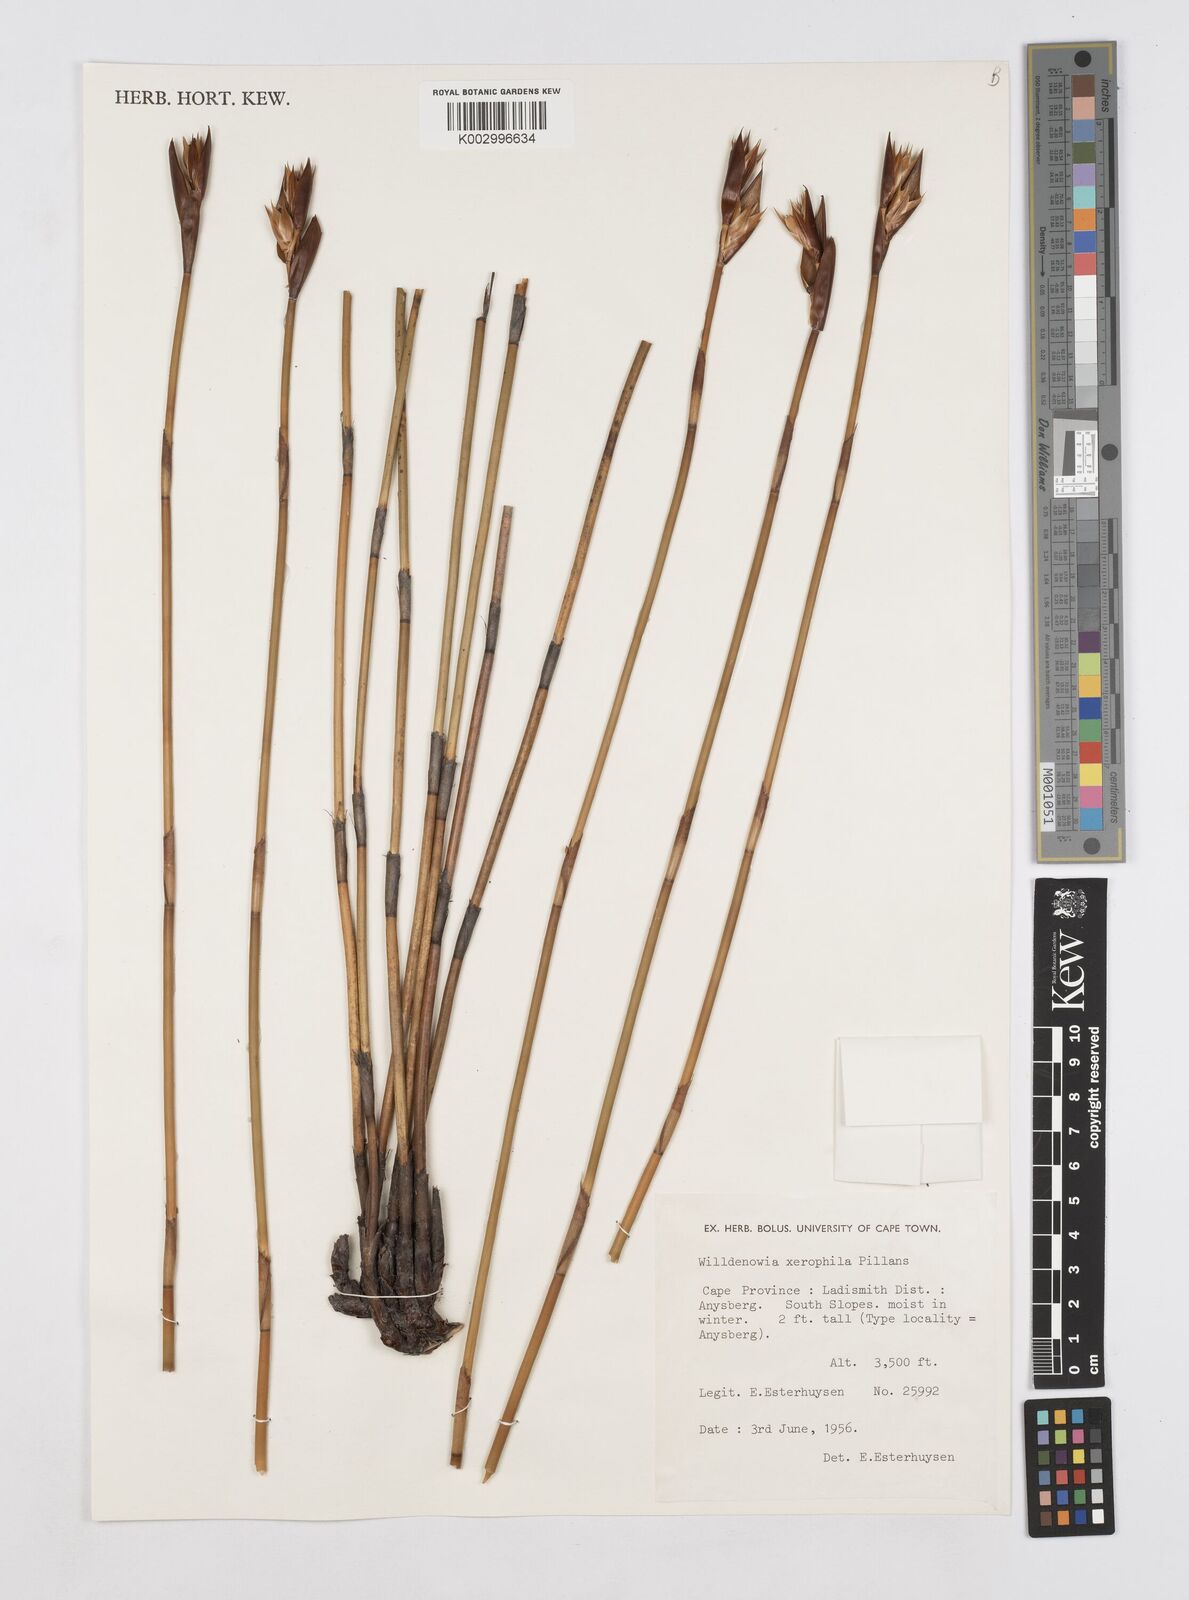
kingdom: Plantae
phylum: Tracheophyta
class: Liliopsida
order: Poales
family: Restionaceae
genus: Ceratocaryum
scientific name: Ceratocaryum xerophilum
